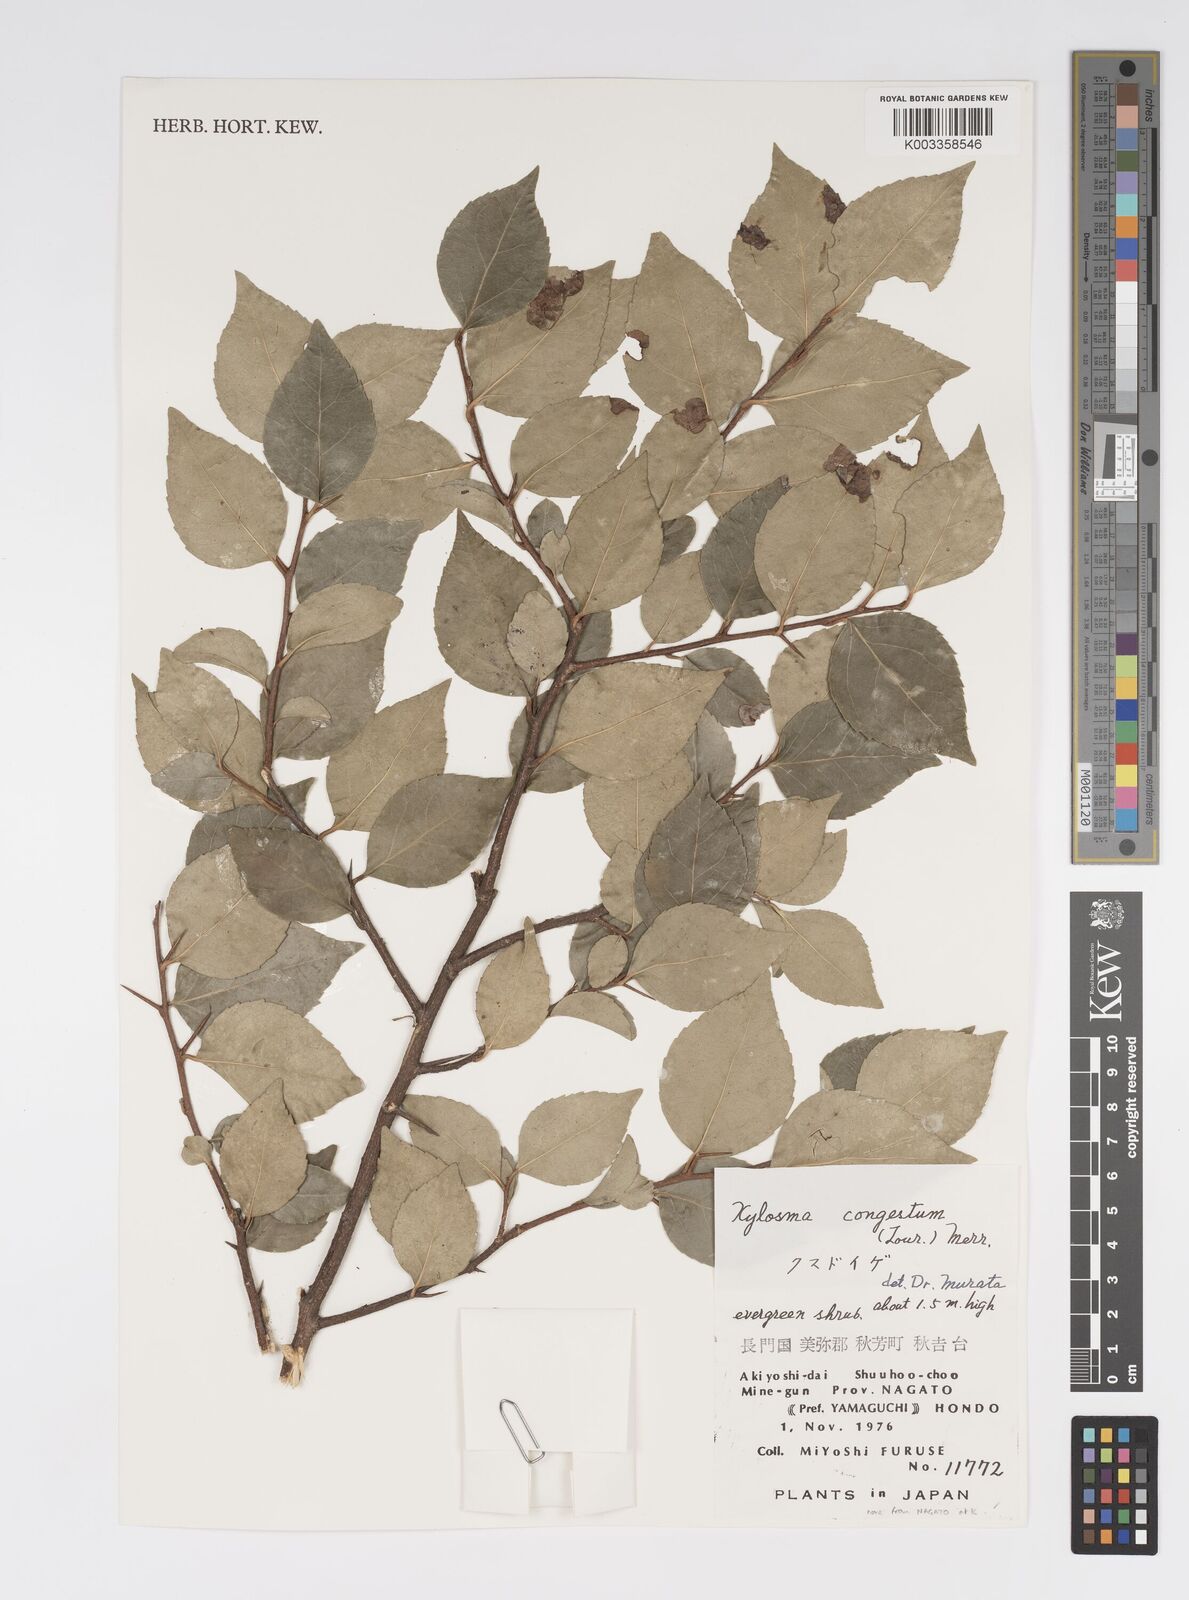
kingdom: Plantae
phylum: Tracheophyta
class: Magnoliopsida
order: Malpighiales
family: Salicaceae
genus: Xylosma
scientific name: Xylosma racemosum
